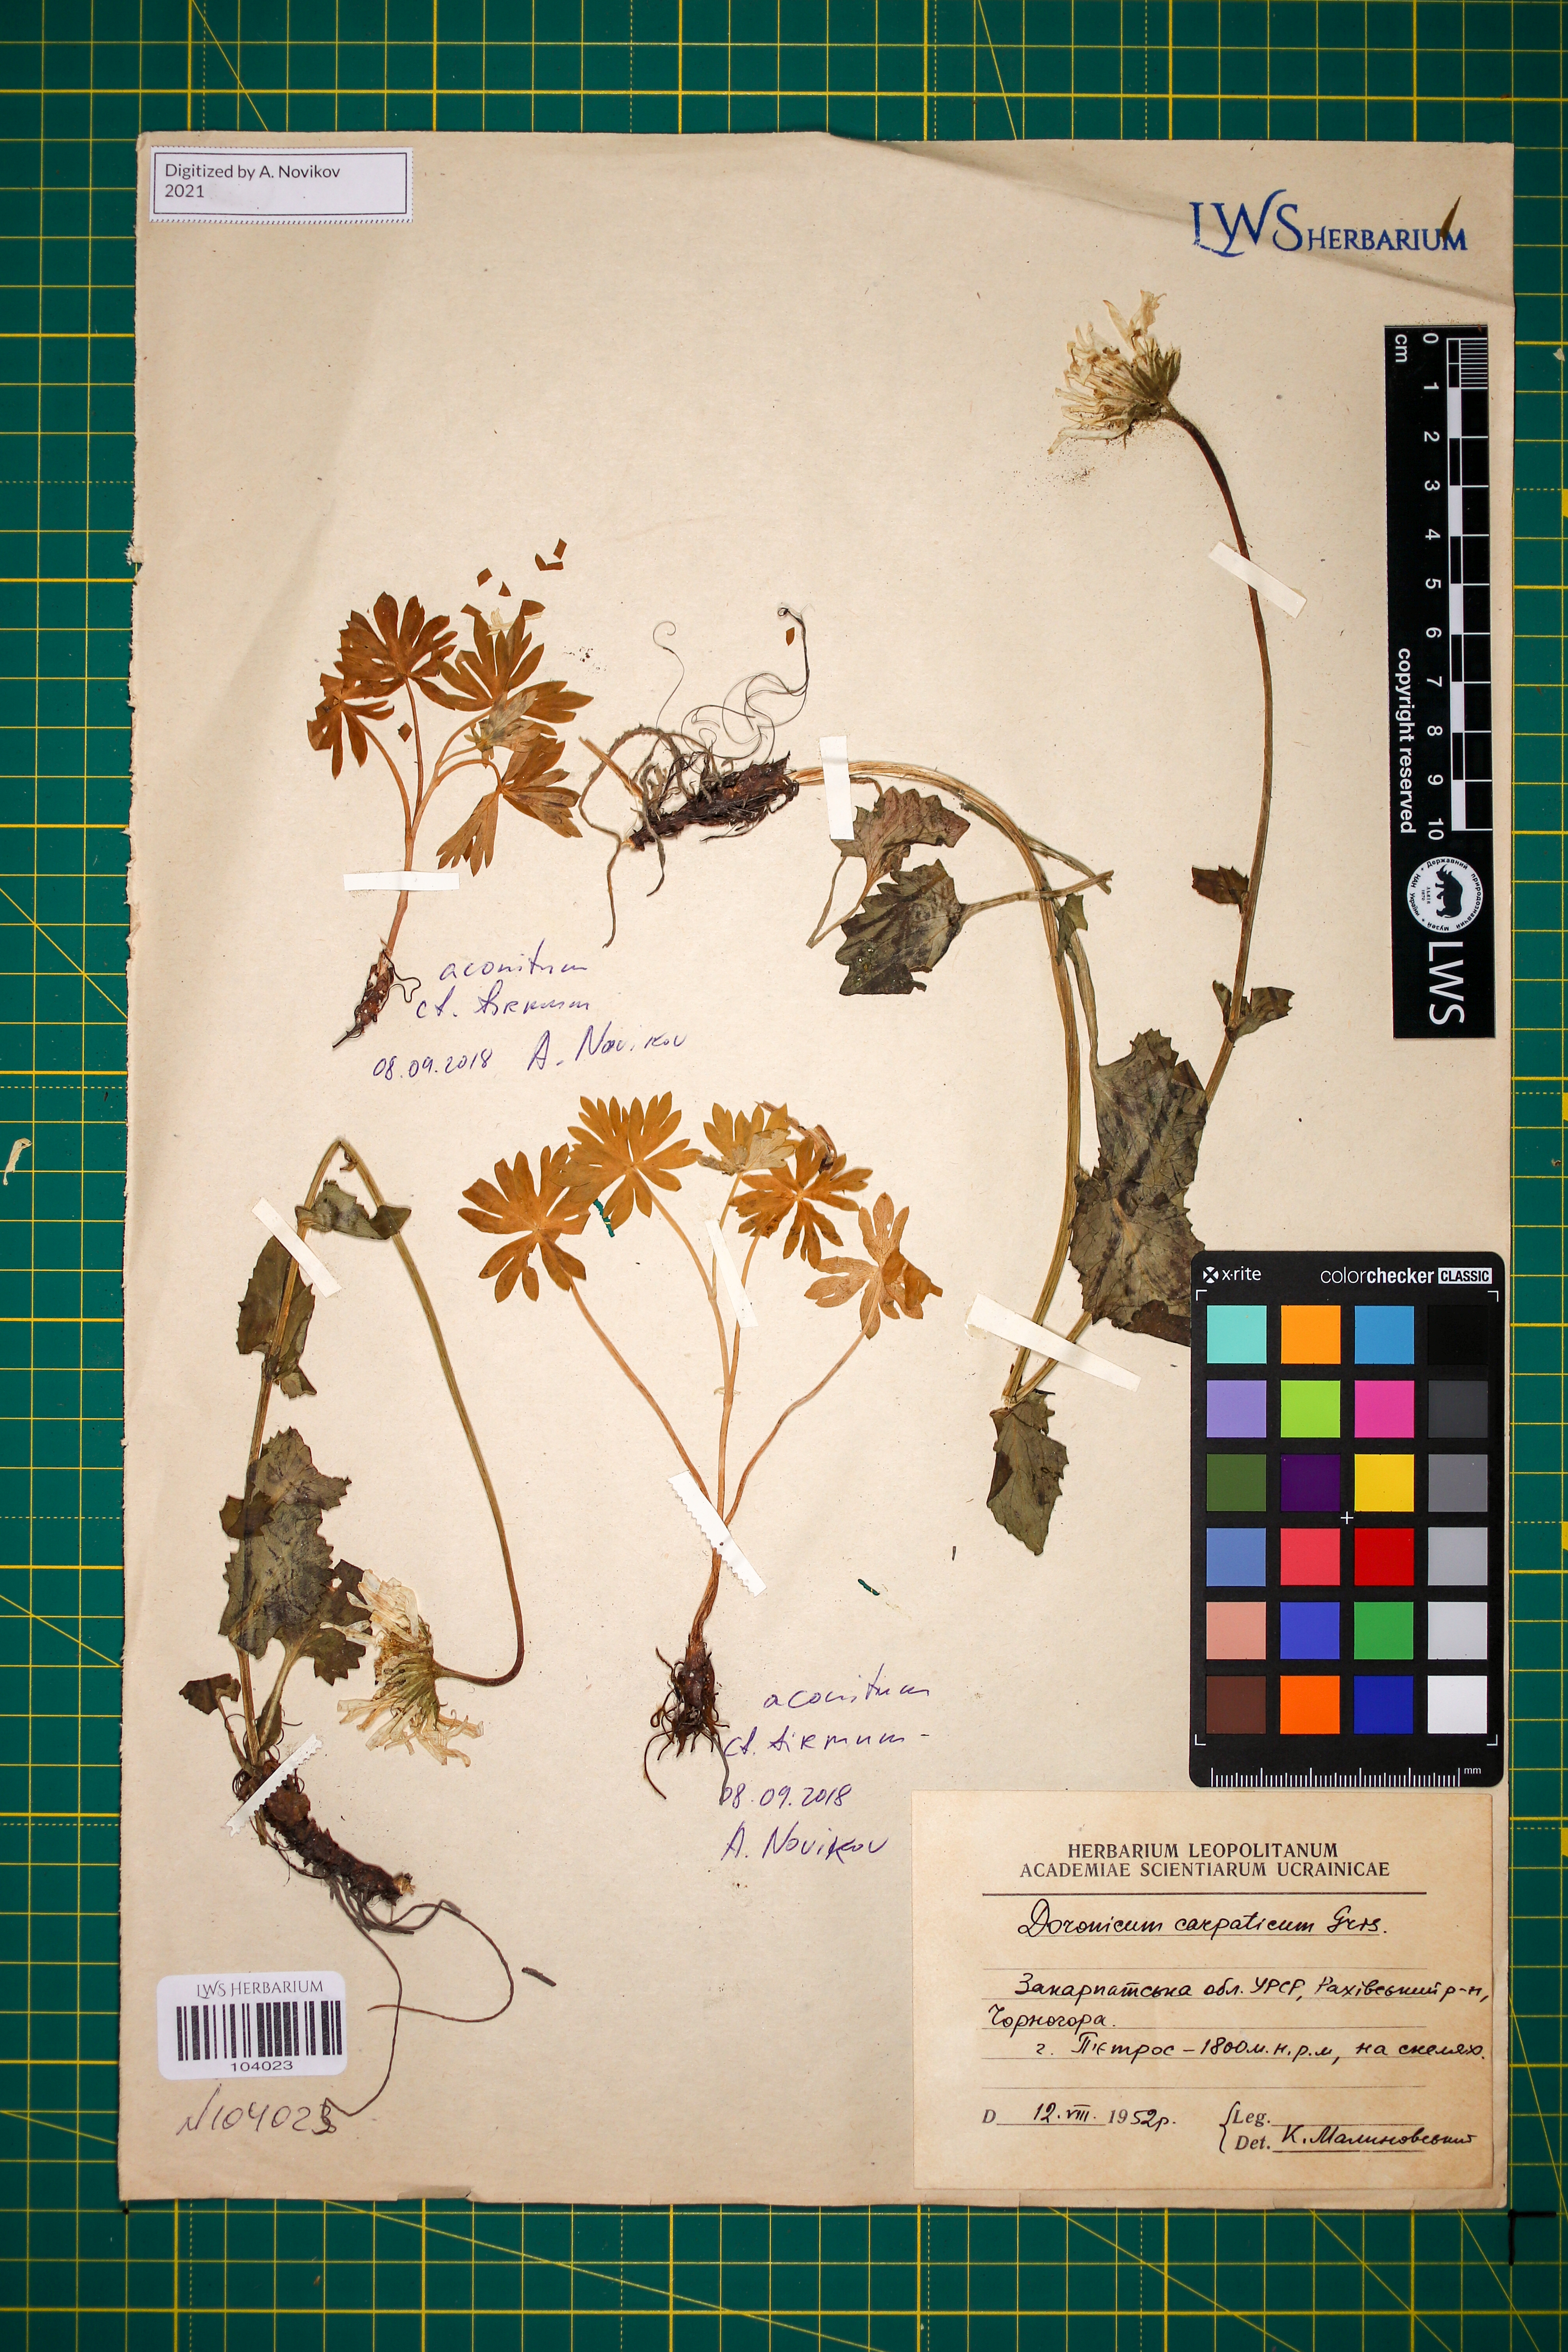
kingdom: Plantae
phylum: Tracheophyta
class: Magnoliopsida
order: Asterales
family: Asteraceae
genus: Doronicum
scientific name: Doronicum carpaticum
